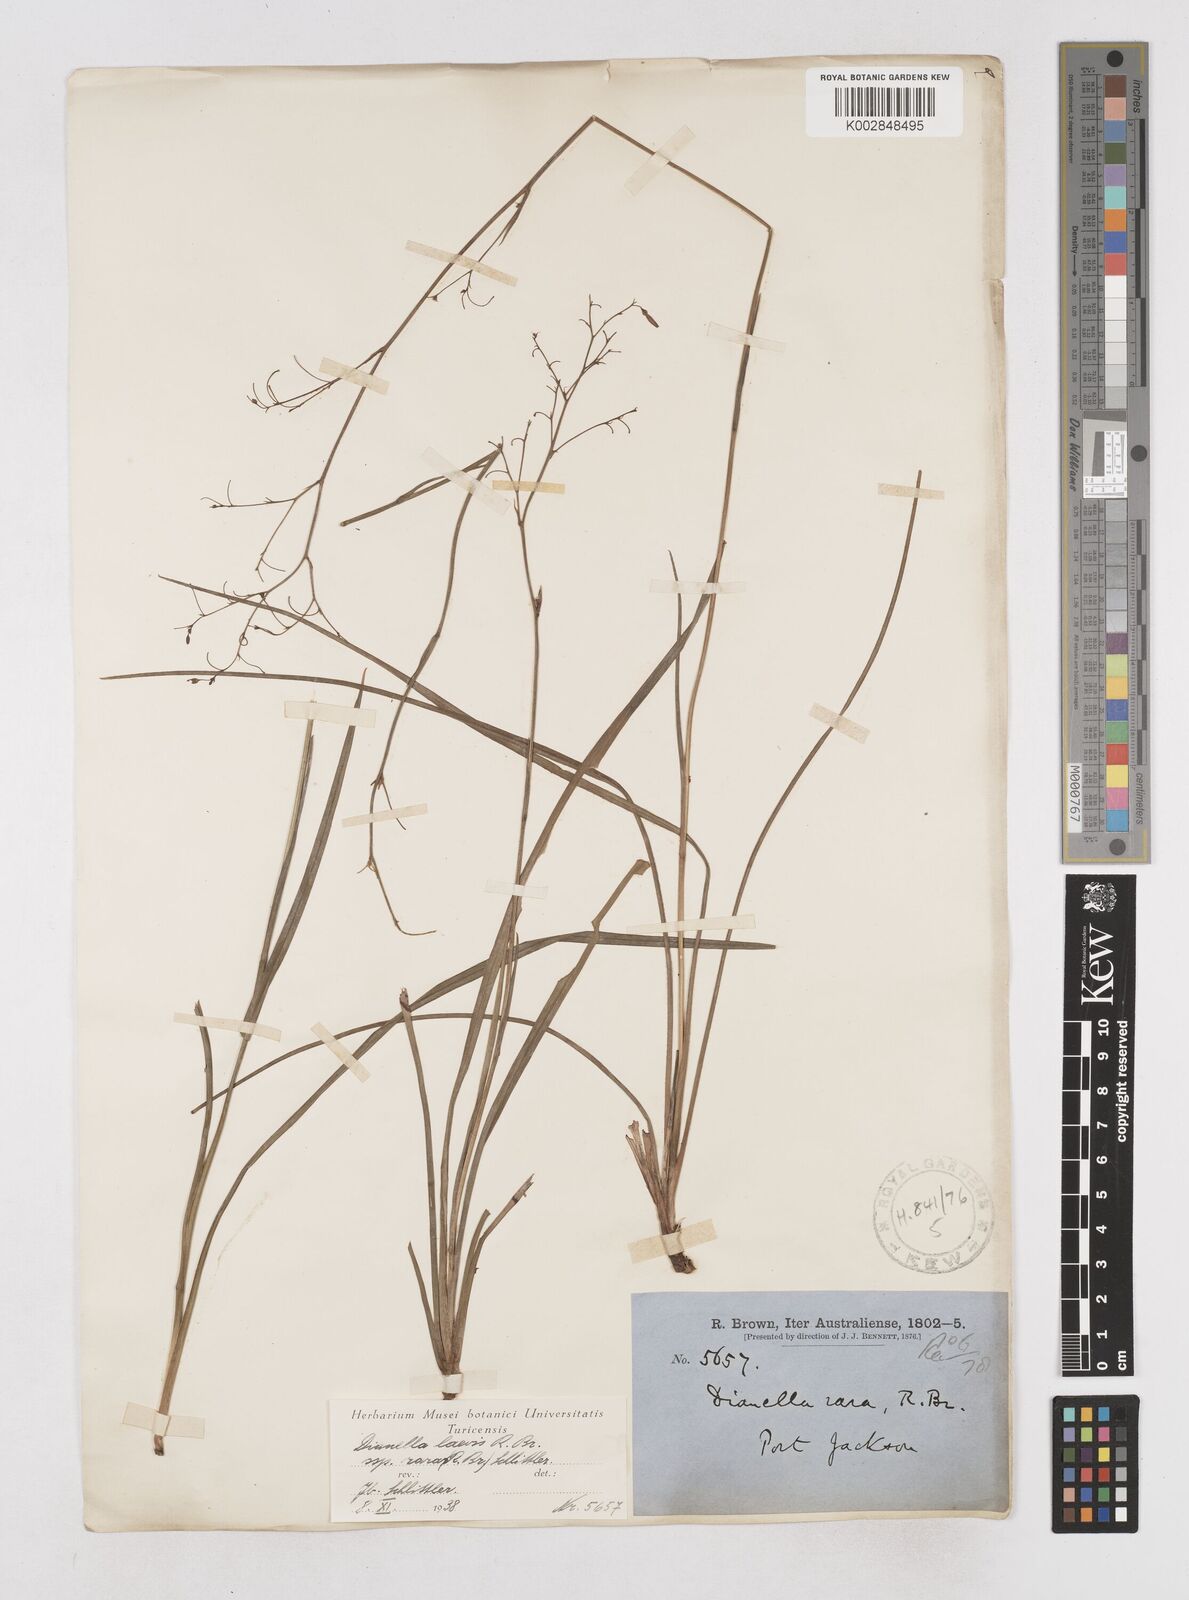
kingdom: Plantae
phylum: Tracheophyta
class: Liliopsida
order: Asparagales
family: Asphodelaceae
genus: Dianella
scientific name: Dianella longifolia
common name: Blue flax-lily
